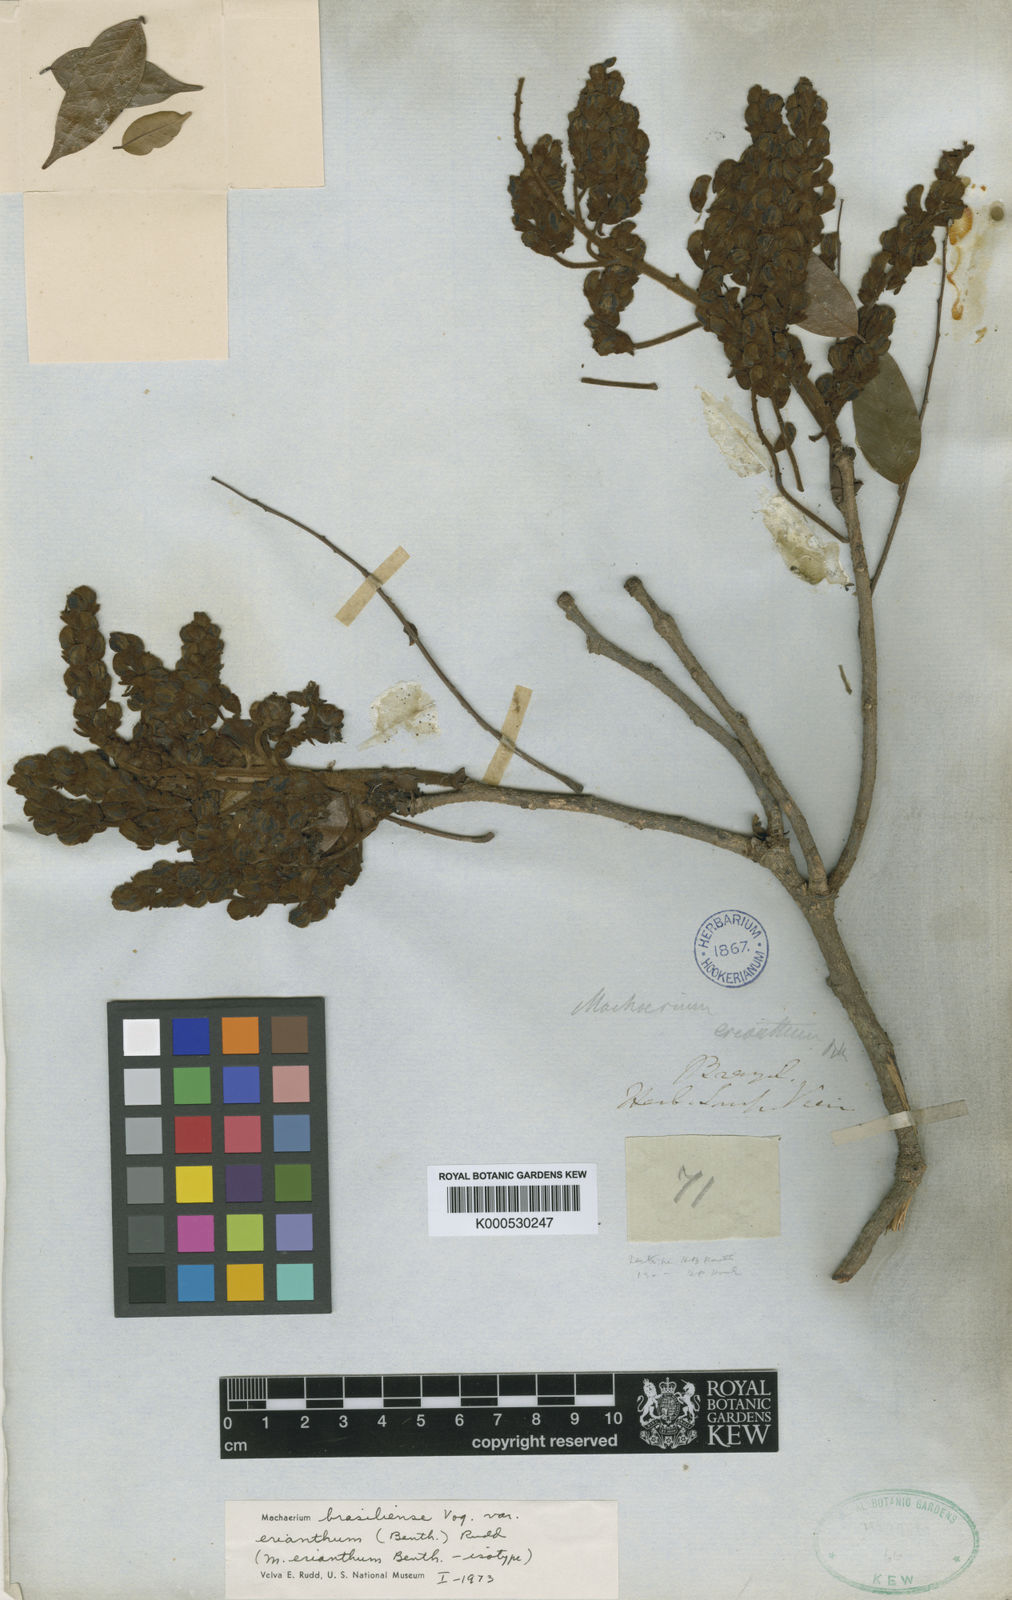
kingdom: Plantae
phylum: Tracheophyta
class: Magnoliopsida
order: Fabales
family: Fabaceae
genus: Machaerium
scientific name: Machaerium brasiliense
